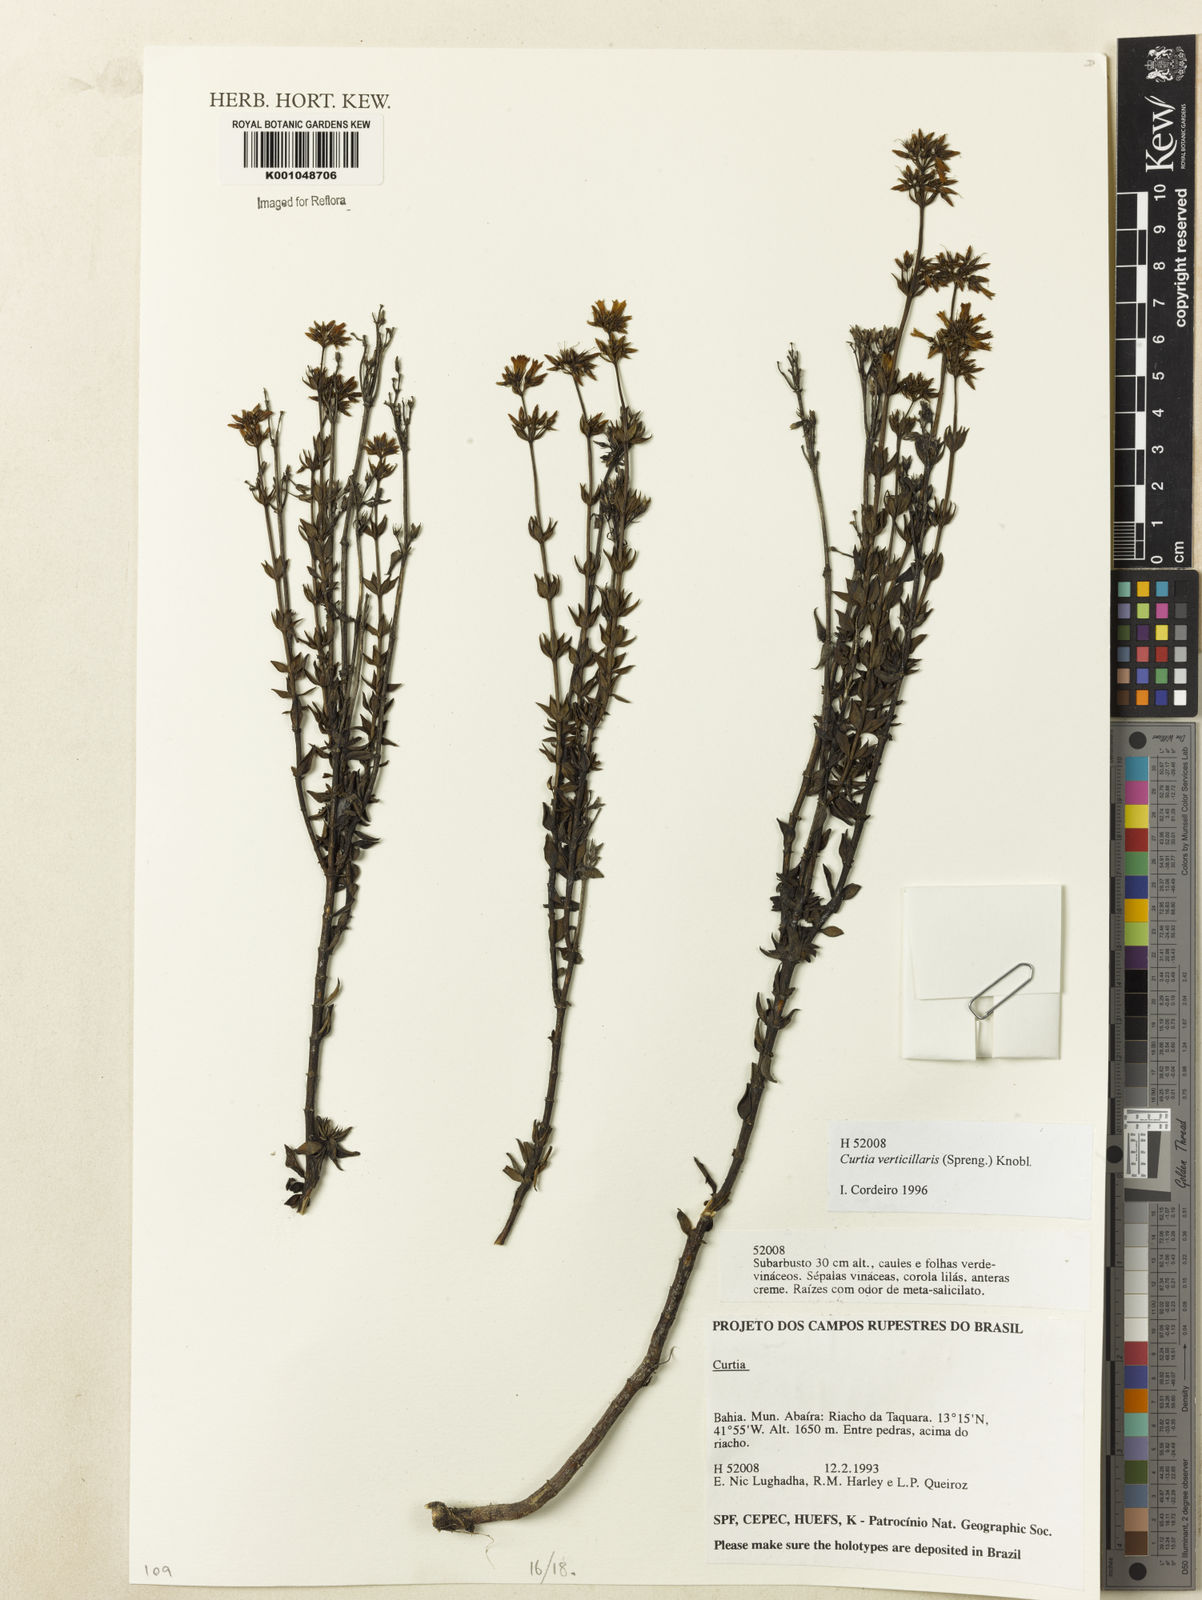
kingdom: Plantae
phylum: Tracheophyta
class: Magnoliopsida
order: Gentianales
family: Gentianaceae
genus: Curtia
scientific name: Curtia verticillaris
